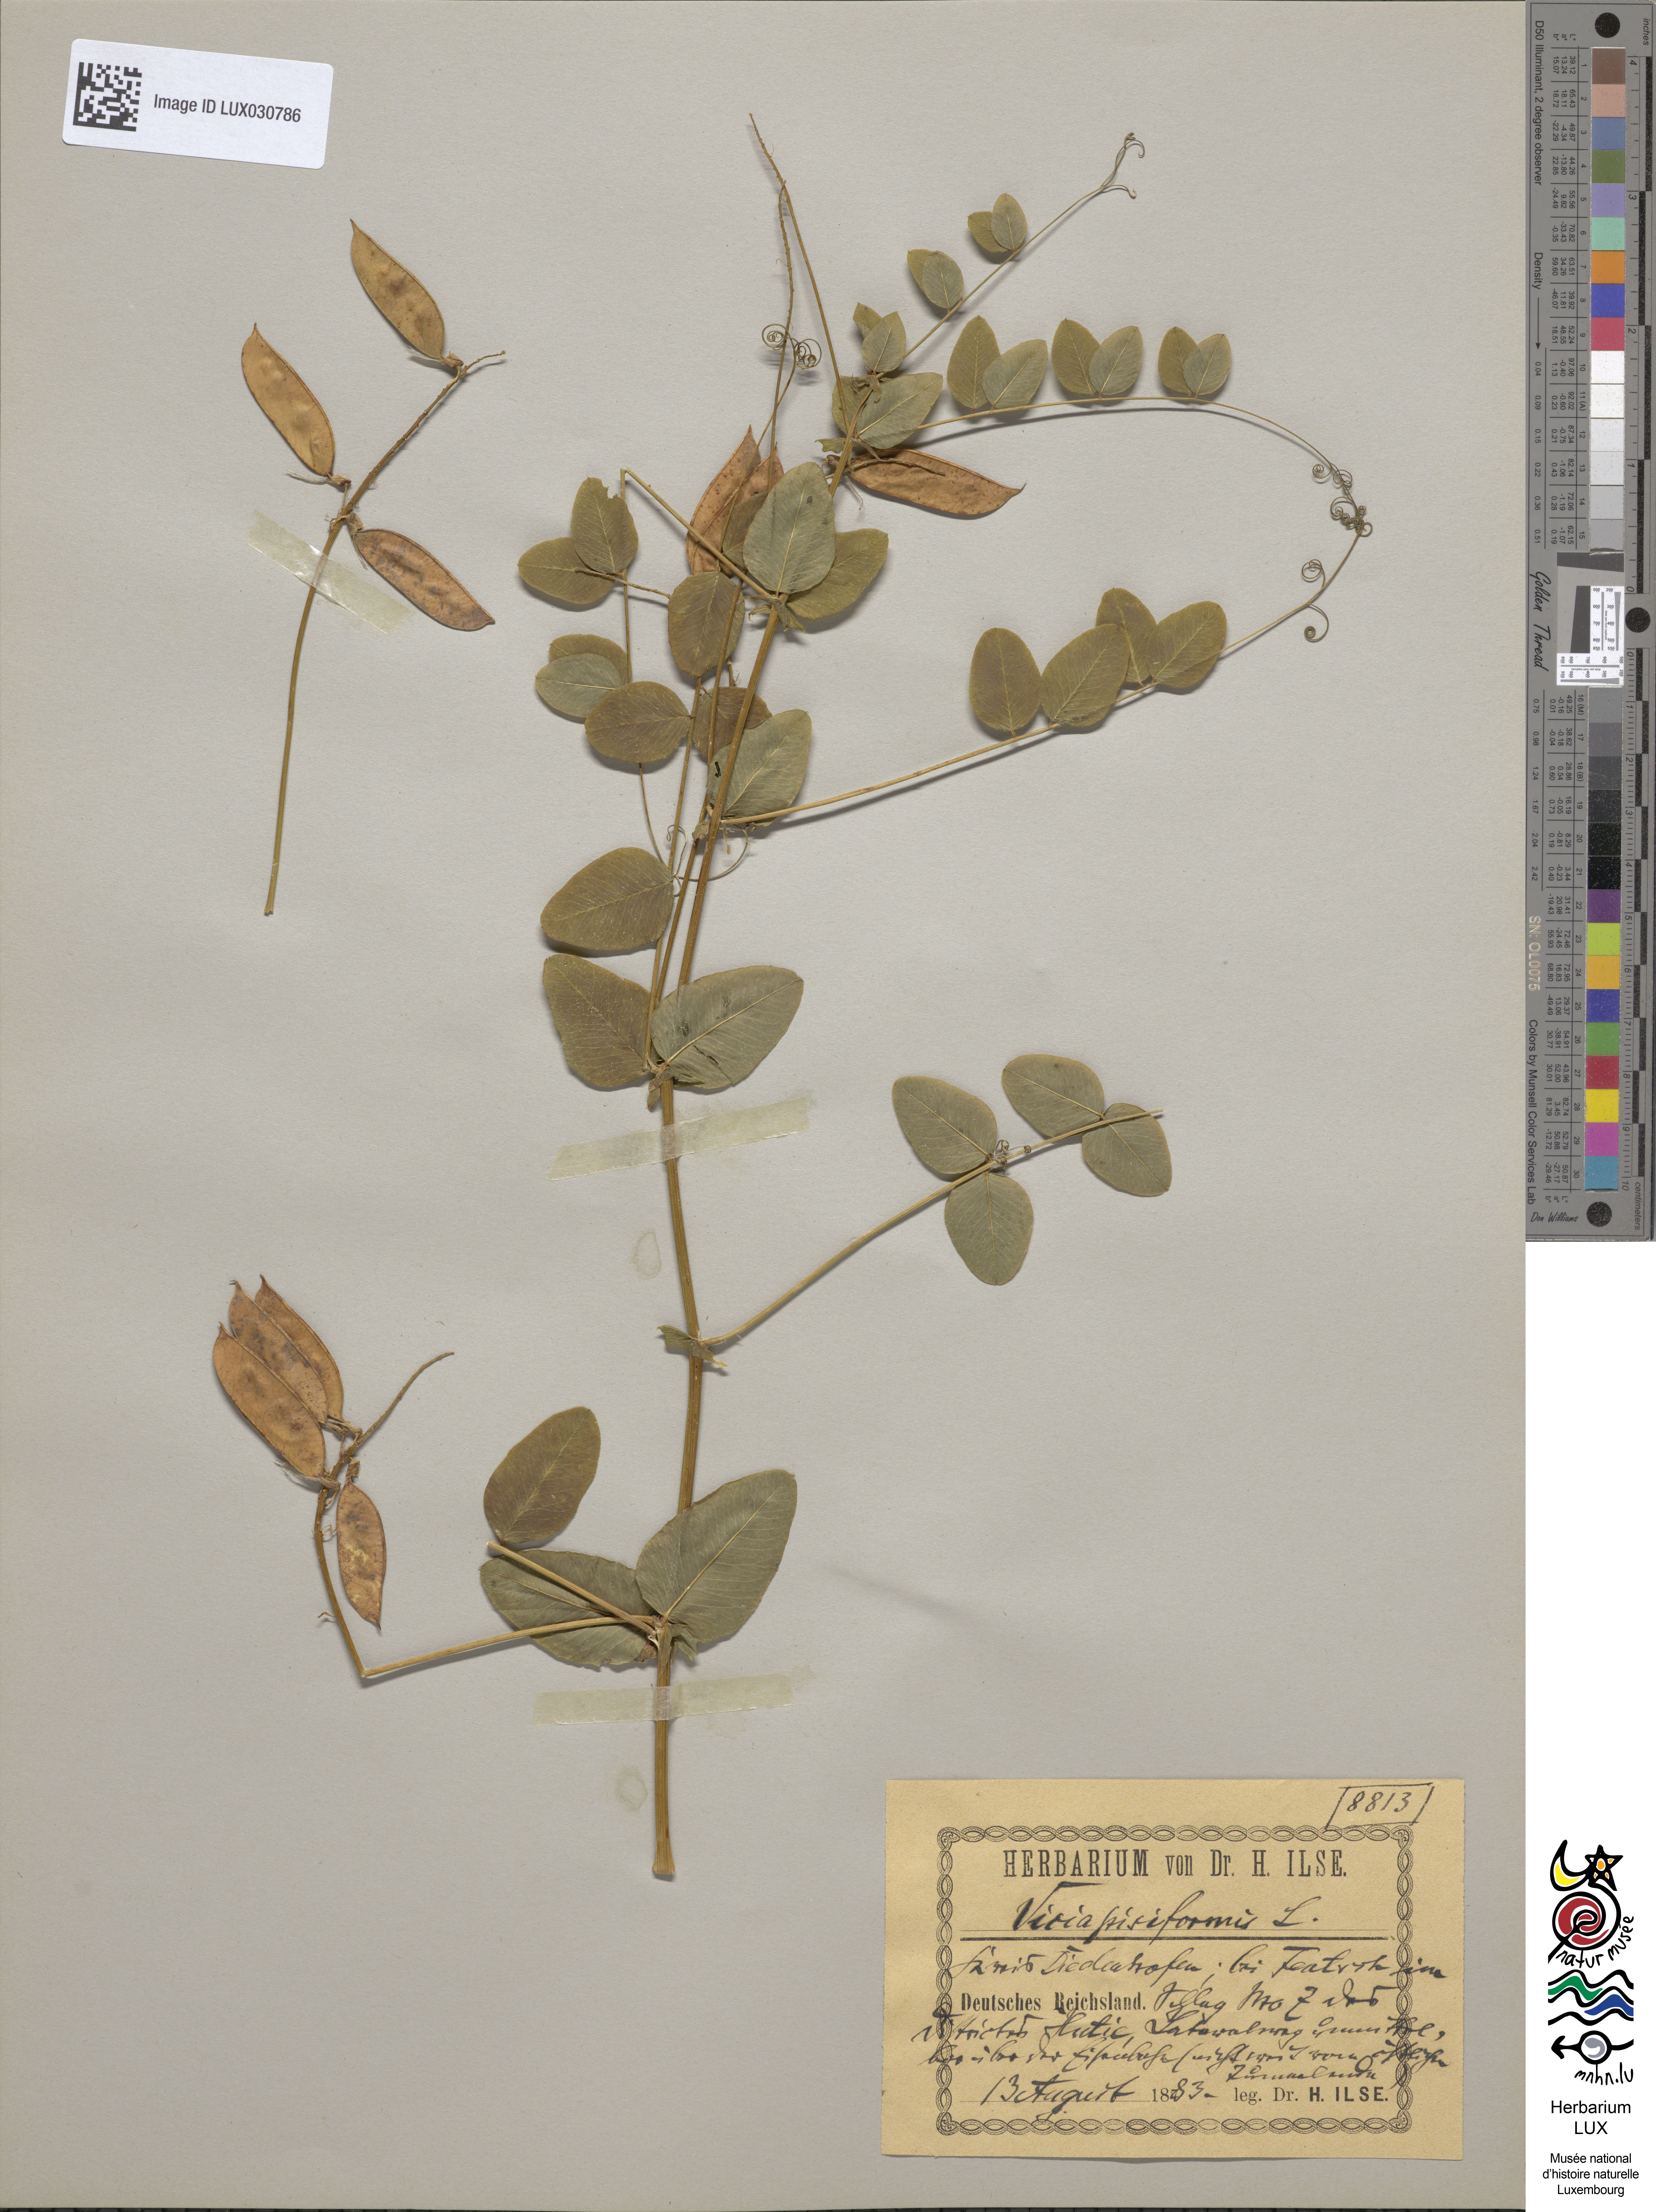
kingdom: Plantae
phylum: Tracheophyta
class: Magnoliopsida
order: Fabales
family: Fabaceae
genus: Vicia
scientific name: Vicia pisiformis
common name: Pale-flower vetch
